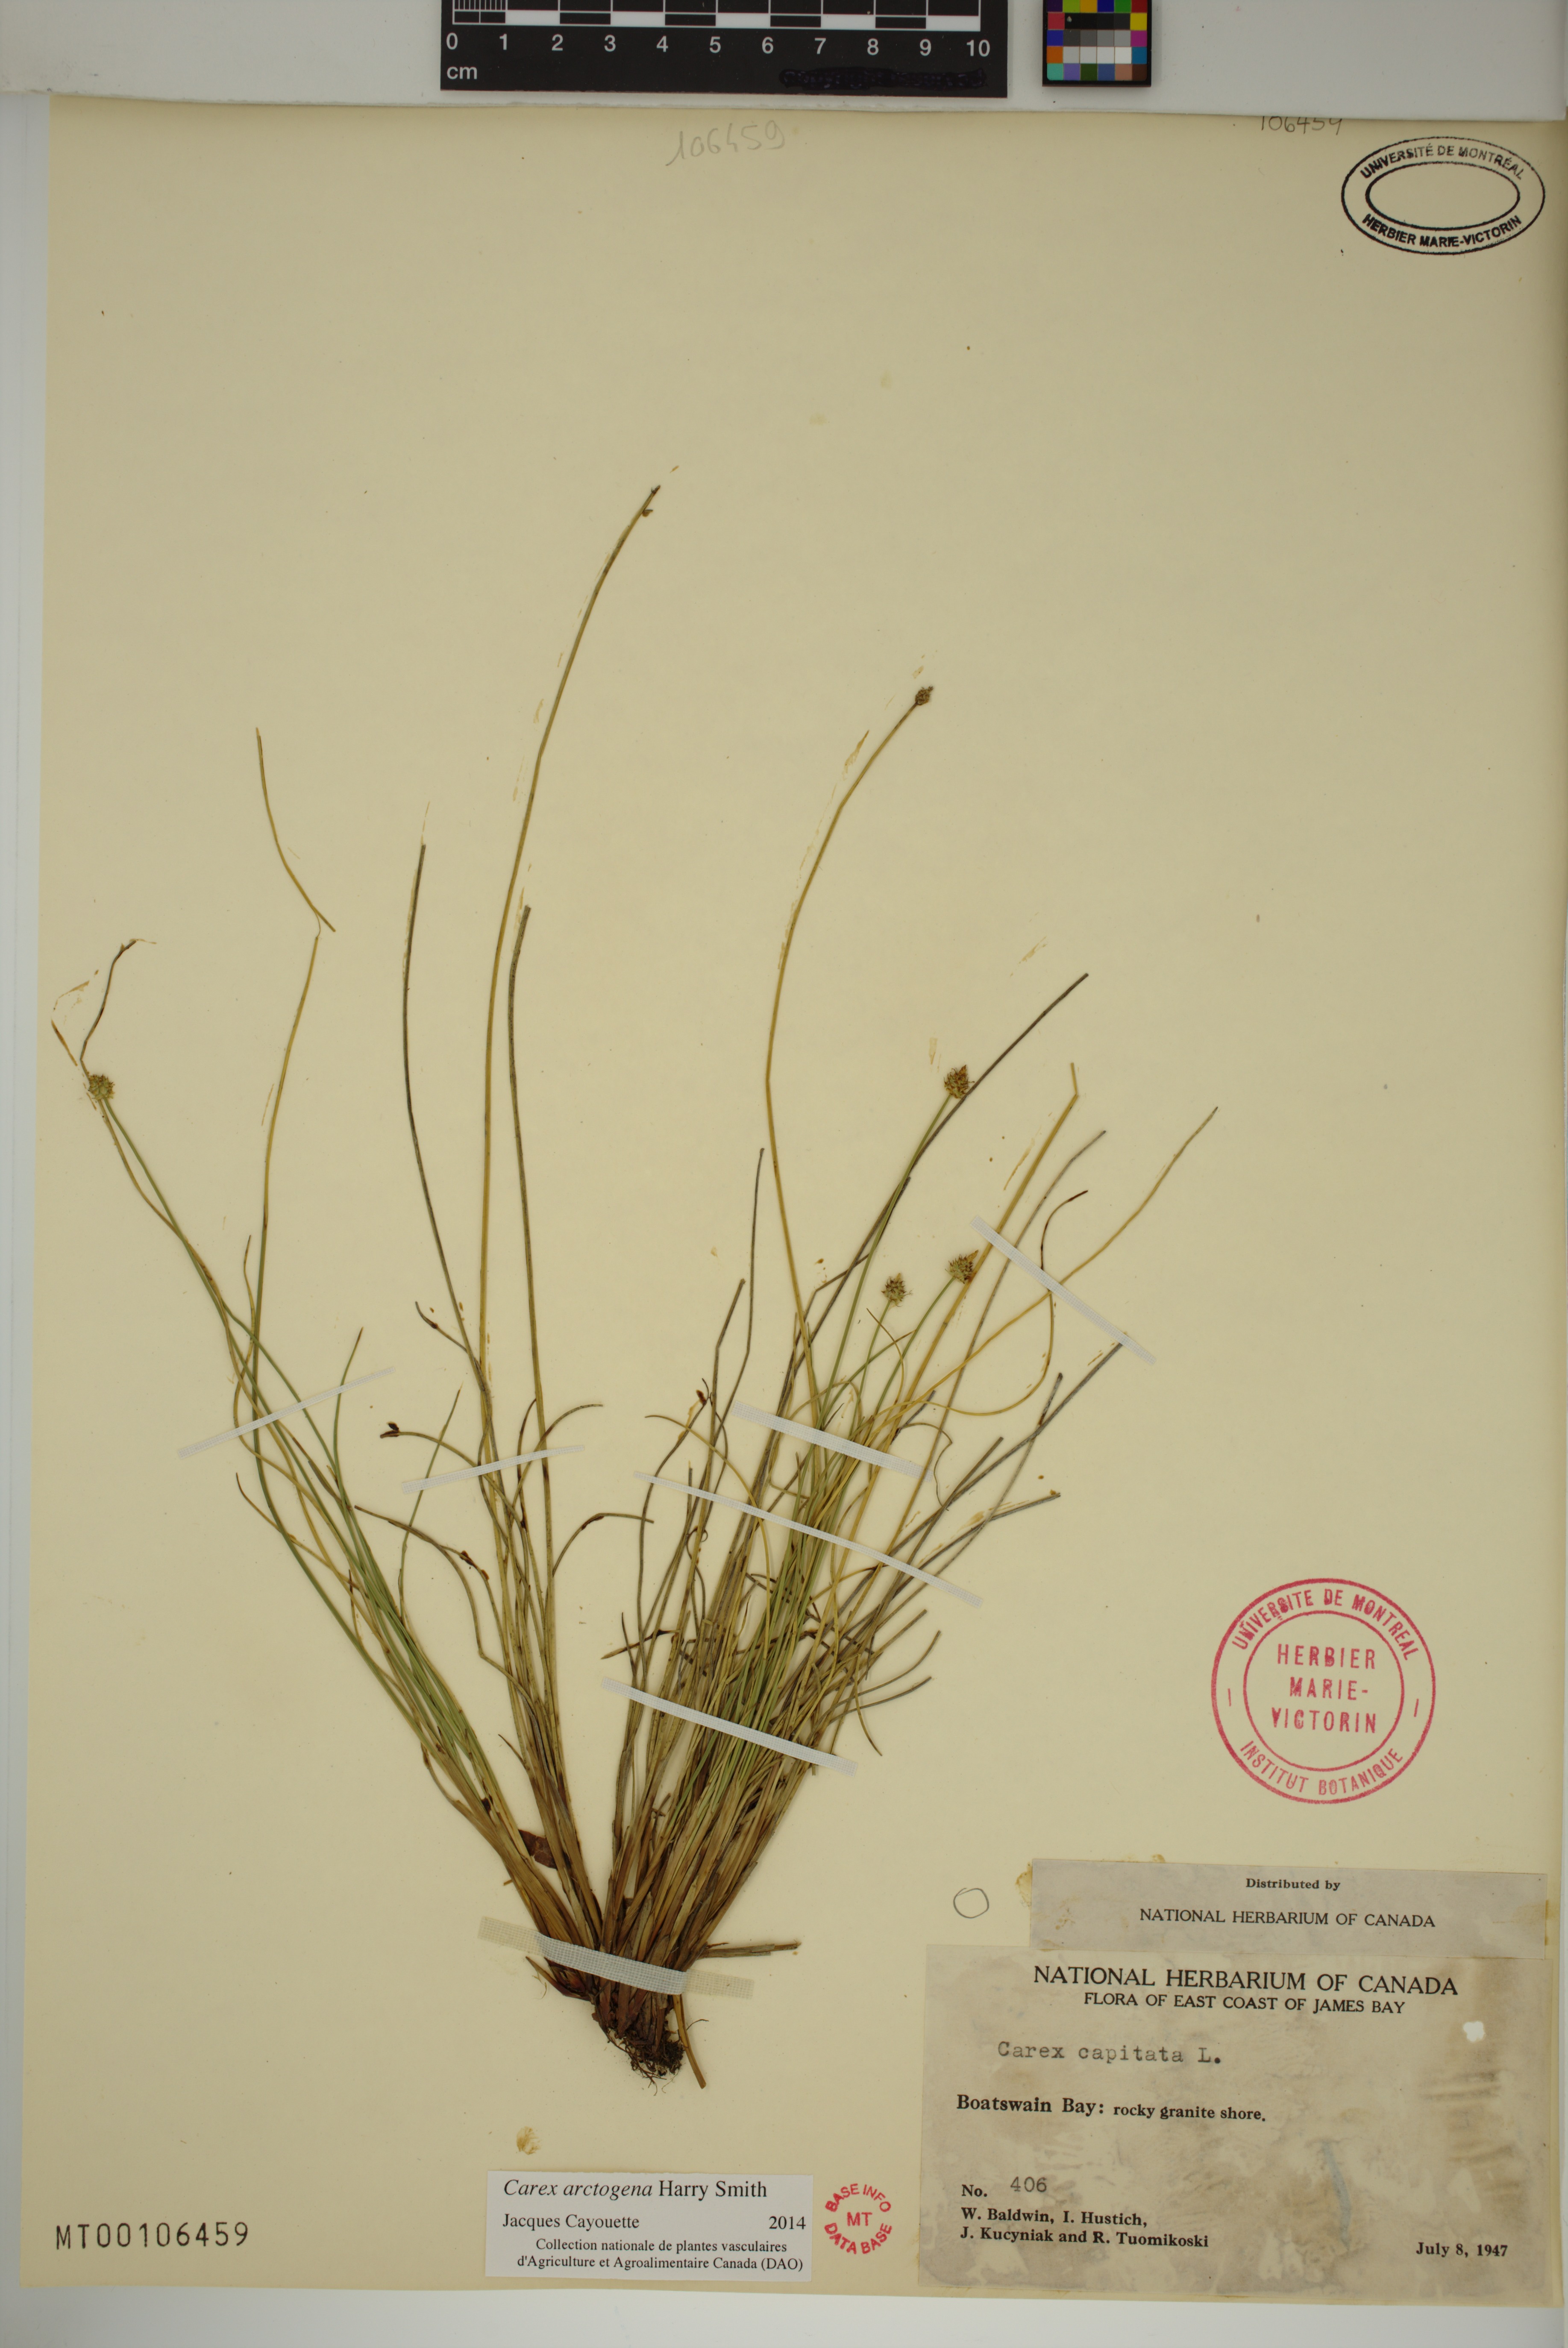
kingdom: Plantae
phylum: Tracheophyta
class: Liliopsida
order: Poales
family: Cyperaceae
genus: Carex
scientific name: Carex arctogena
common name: Black sedge
